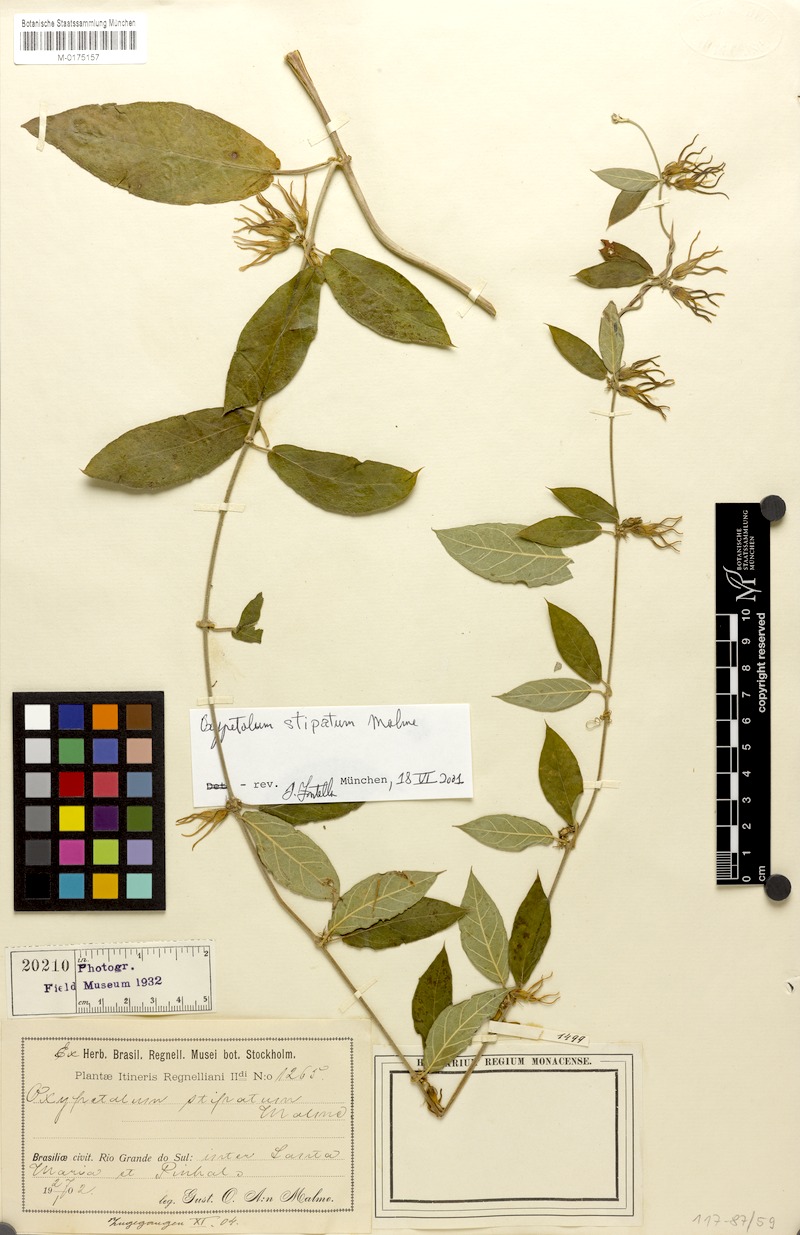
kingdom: Plantae
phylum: Tracheophyta
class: Magnoliopsida
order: Gentianales
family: Apocynaceae
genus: Oxypetalum
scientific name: Oxypetalum stipatum
